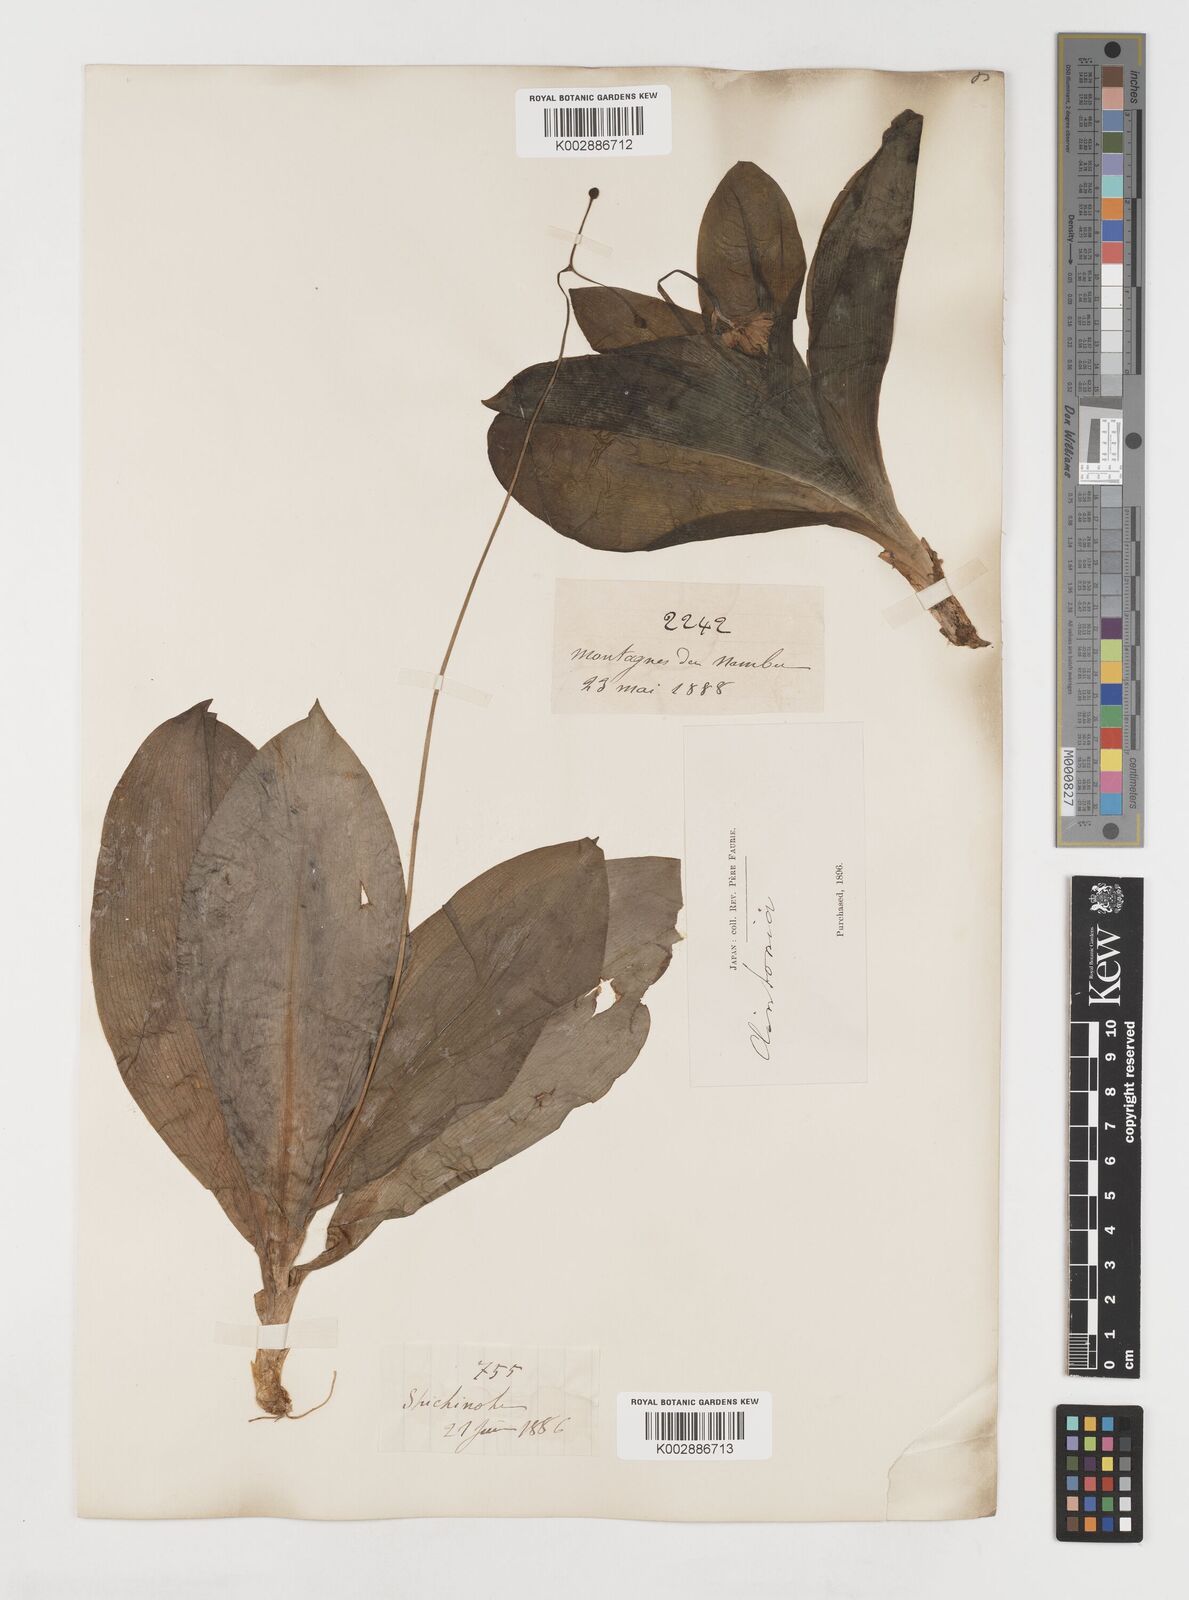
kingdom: Plantae
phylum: Tracheophyta
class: Liliopsida
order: Liliales
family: Liliaceae
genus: Clintonia
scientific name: Clintonia udensis
